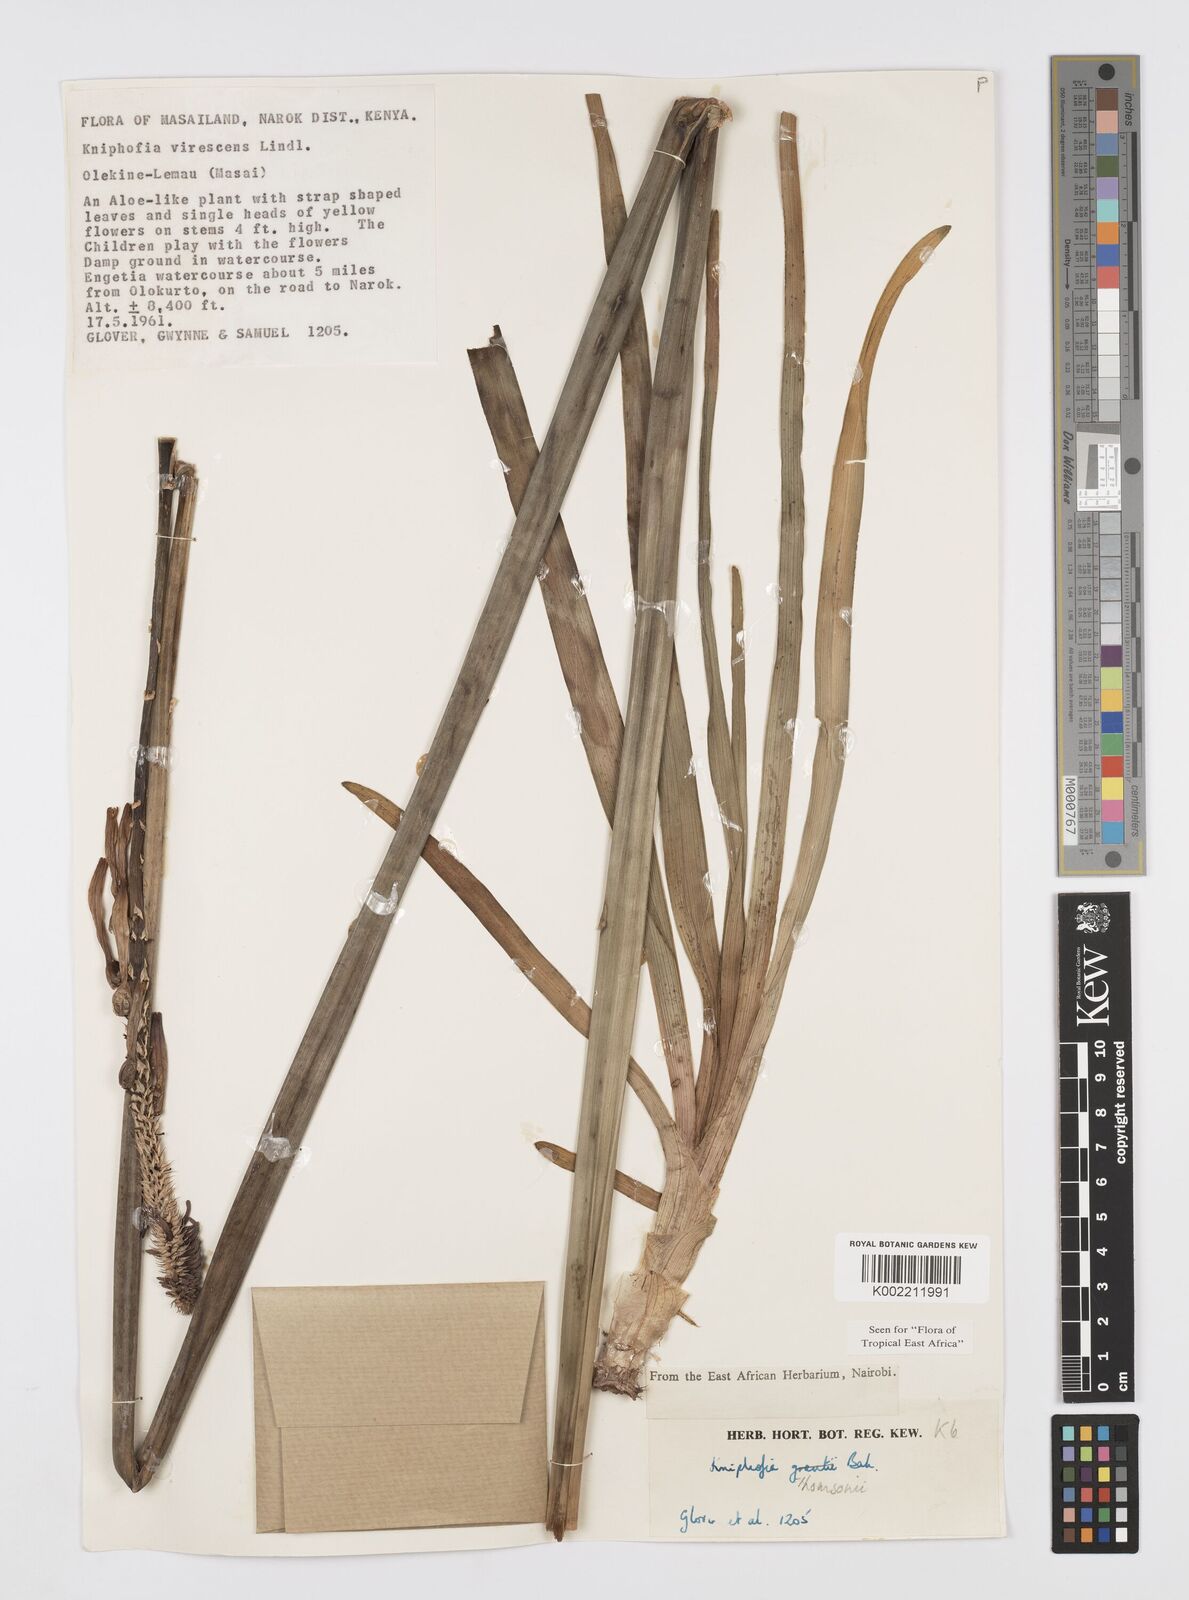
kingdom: Plantae
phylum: Tracheophyta
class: Liliopsida
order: Asparagales
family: Asphodelaceae
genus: Kniphofia
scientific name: Kniphofia thomsonii
